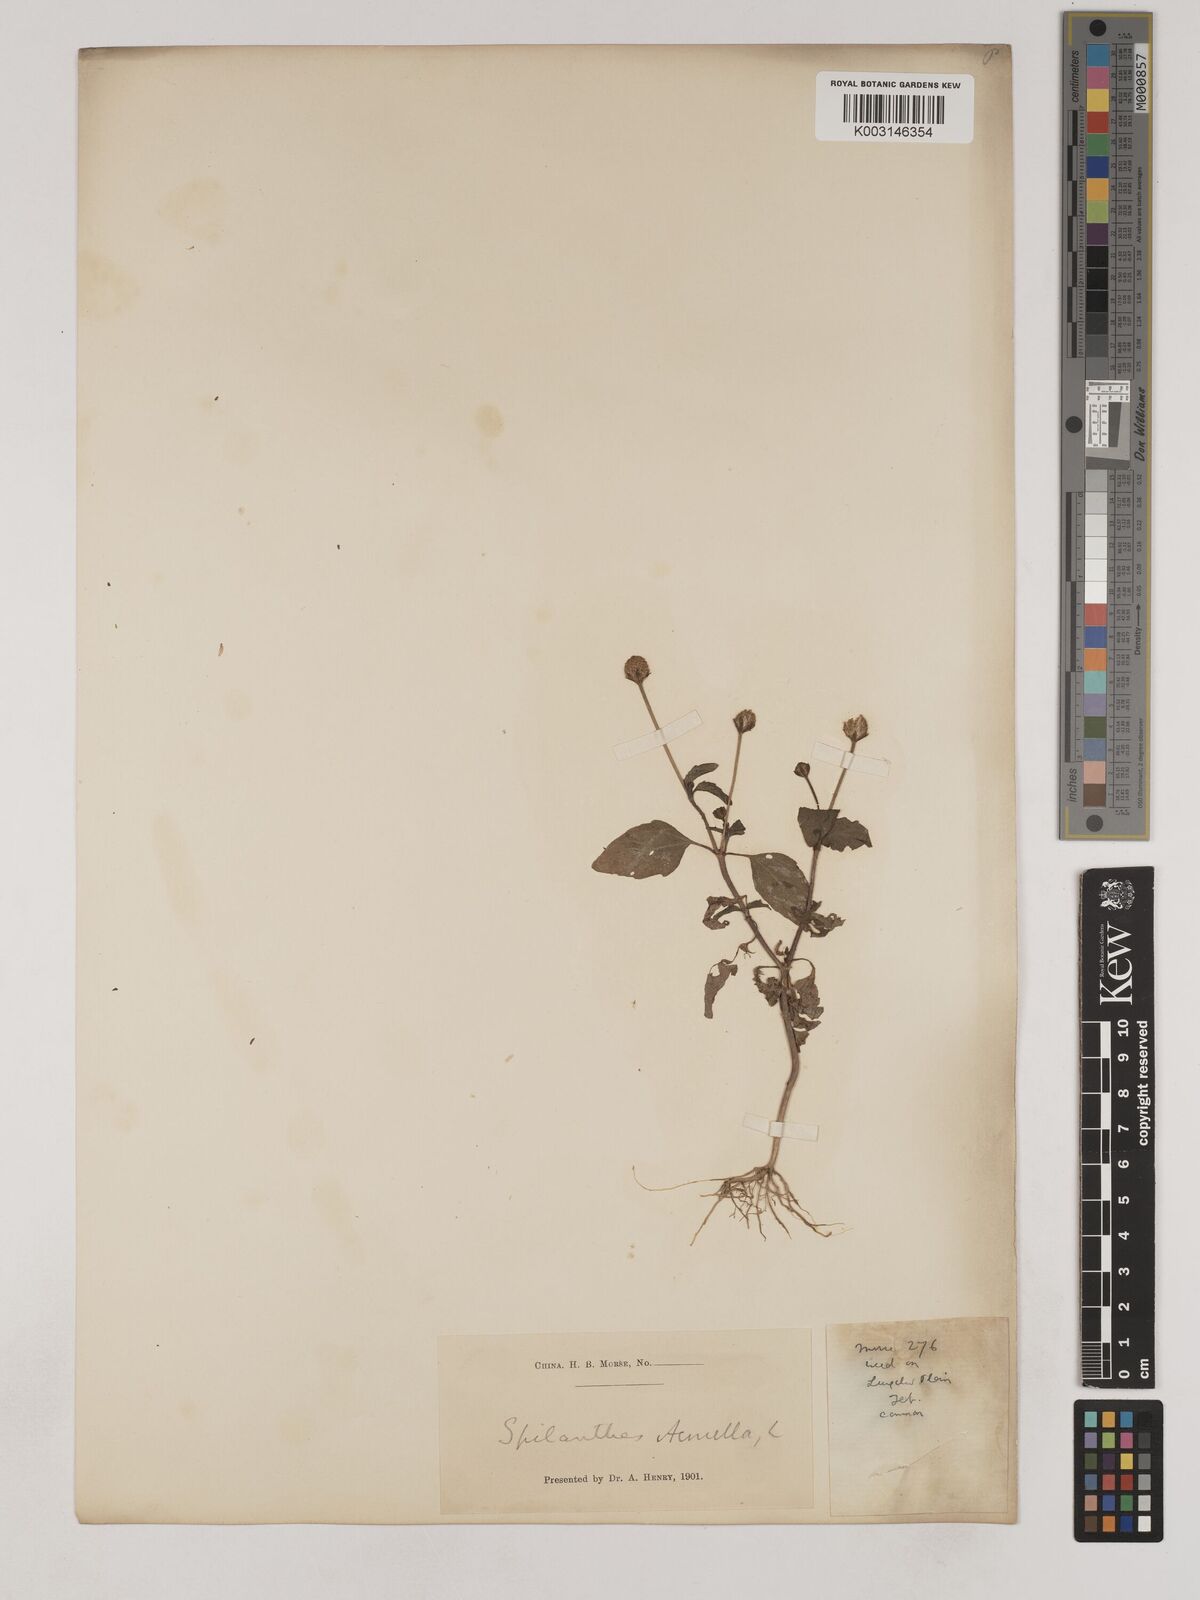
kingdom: Plantae
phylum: Tracheophyta
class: Magnoliopsida
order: Asterales
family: Asteraceae
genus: Acmella
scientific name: Acmella paniculata
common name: Panicled spot flower
